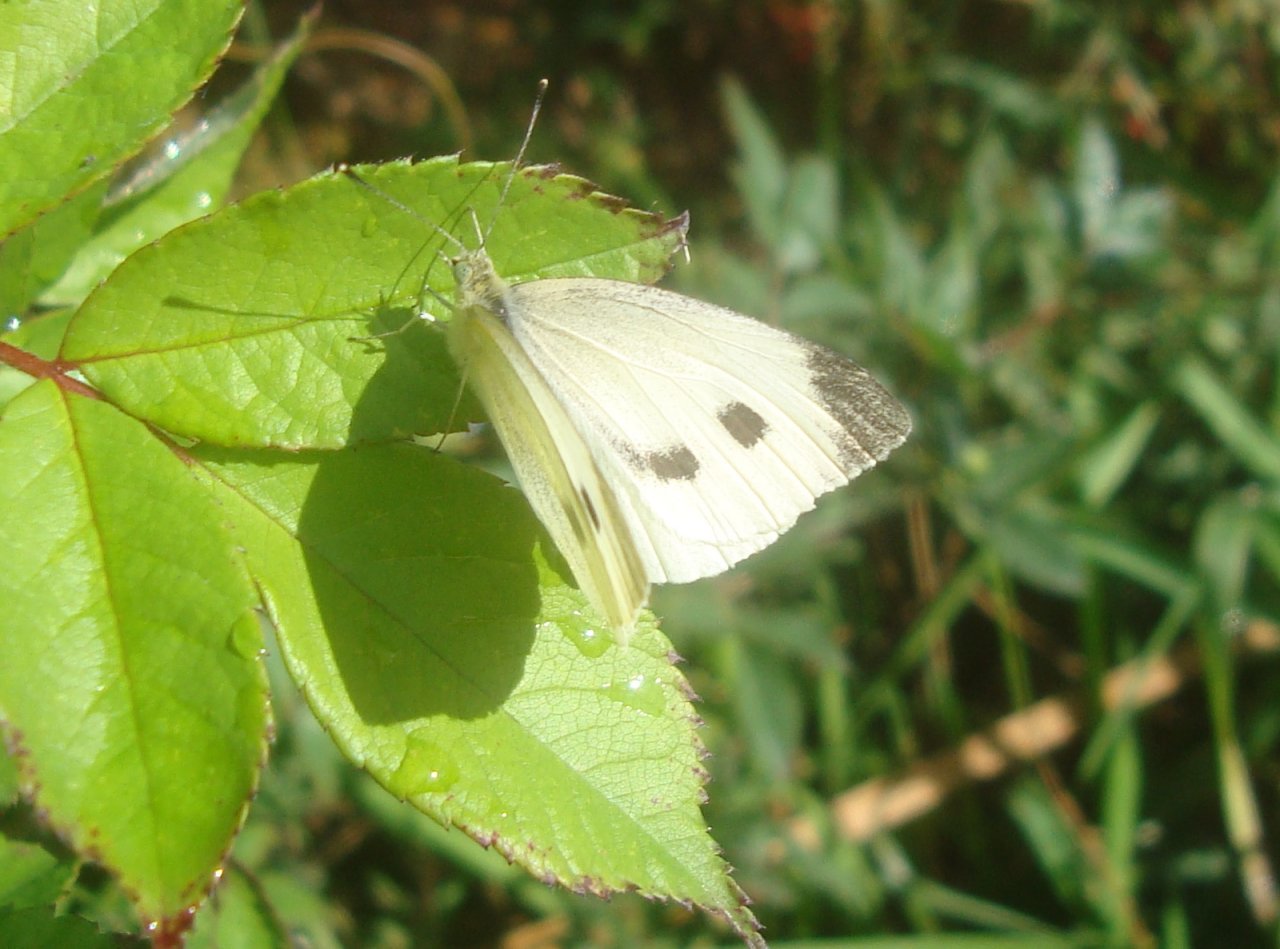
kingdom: Animalia
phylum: Arthropoda
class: Insecta
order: Lepidoptera
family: Pieridae
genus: Pieris
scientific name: Pieris rapae
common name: Cabbage White
